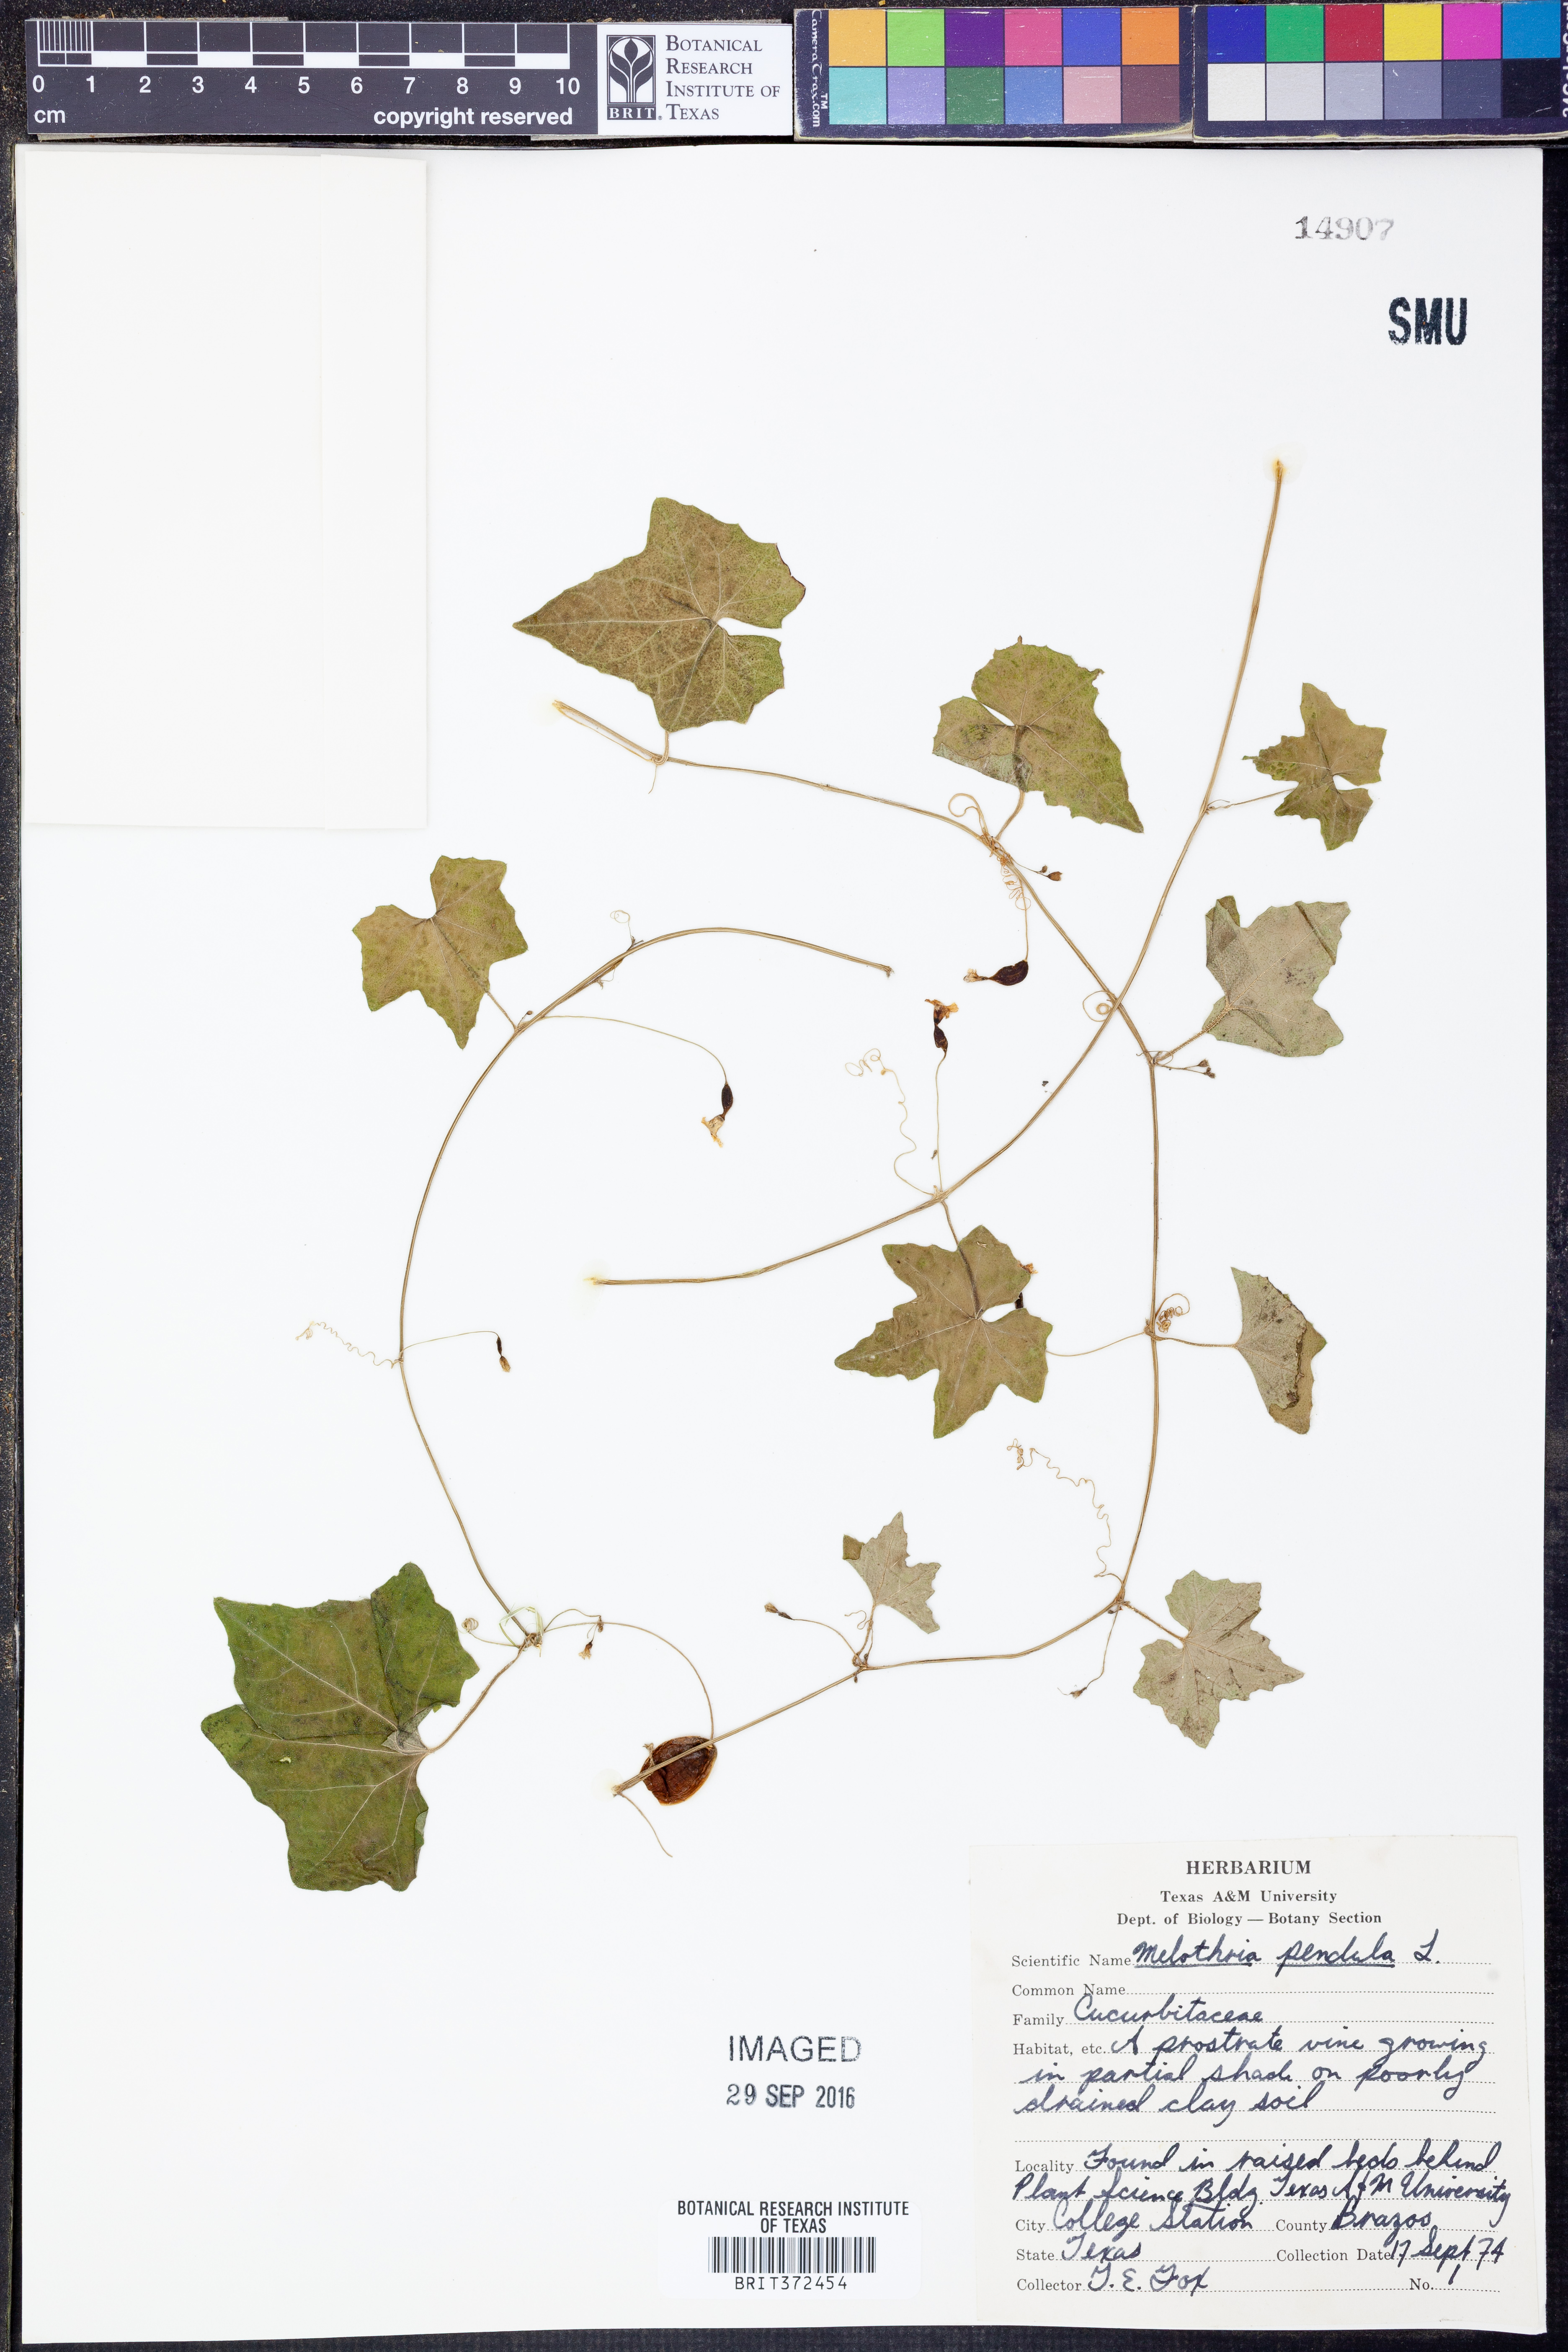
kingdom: Plantae
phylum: Tracheophyta
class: Magnoliopsida
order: Cucurbitales
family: Cucurbitaceae
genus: Melothria
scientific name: Melothria pendula
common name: Creeping-cucumber
